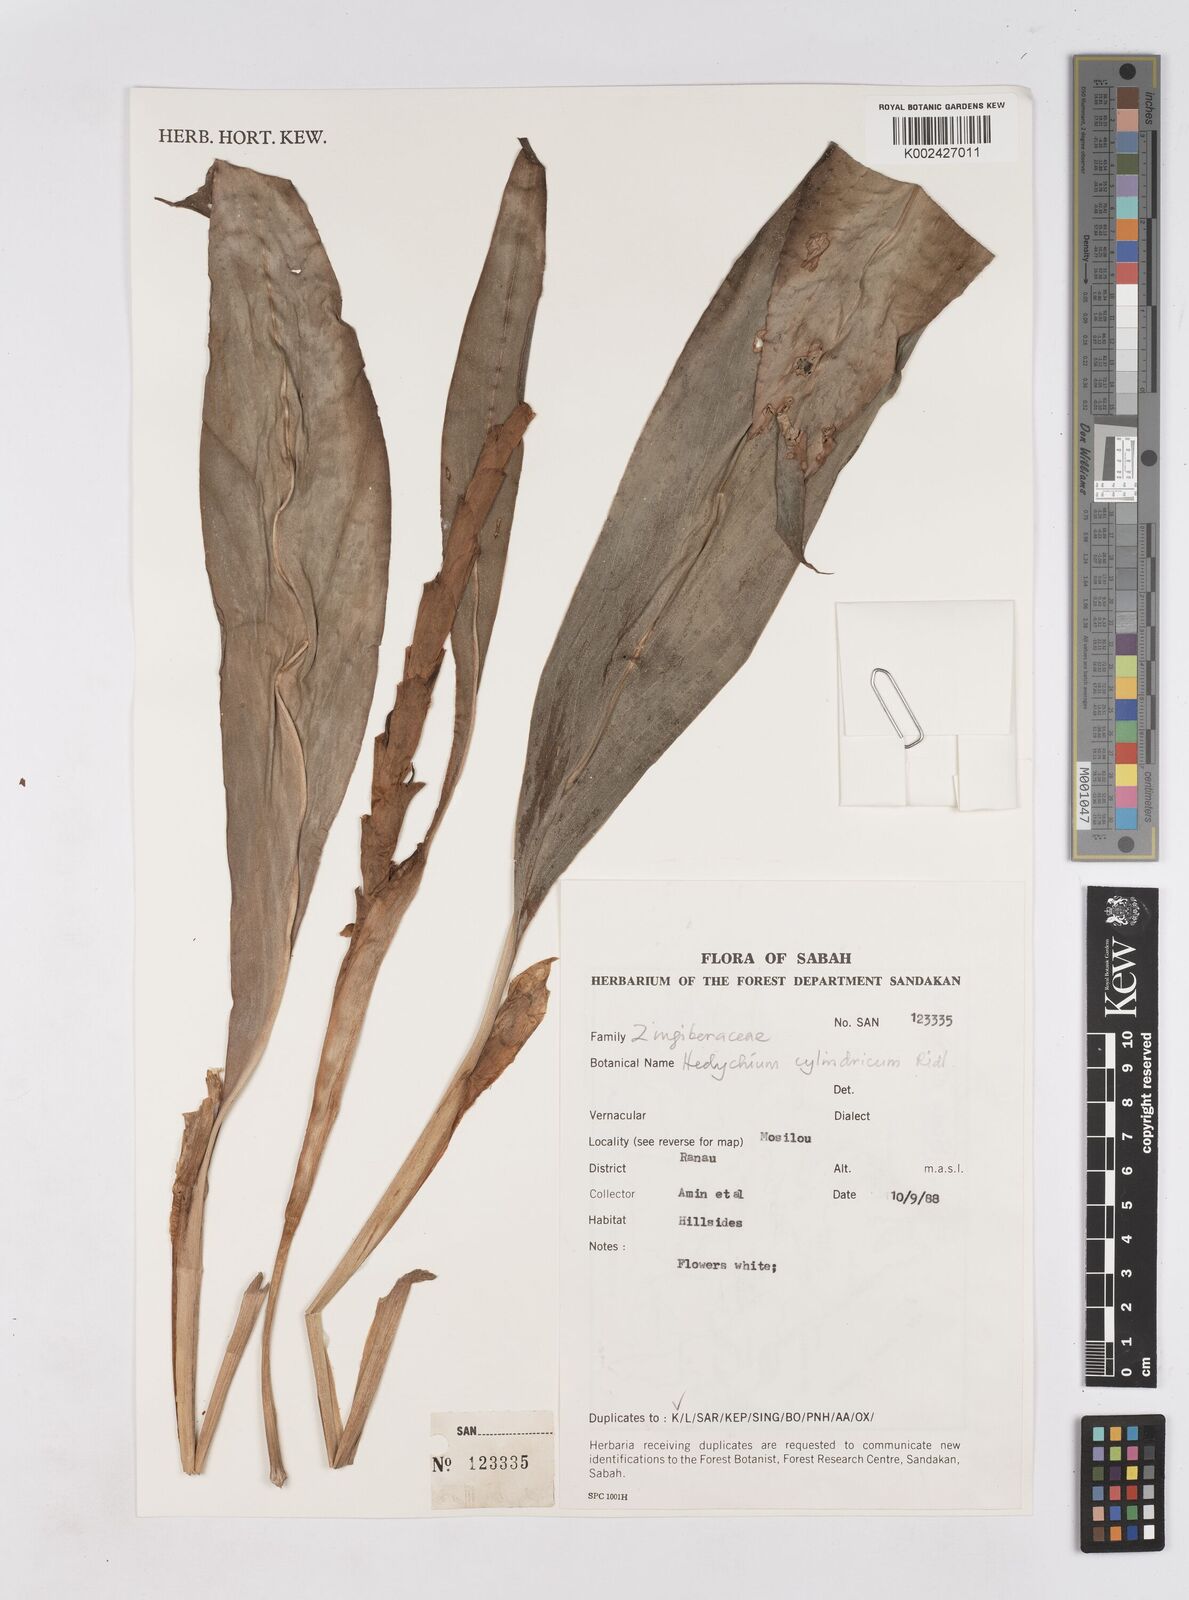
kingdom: Plantae
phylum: Tracheophyta
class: Liliopsida
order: Zingiberales
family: Zingiberaceae
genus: Hedychium
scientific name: Hedychium cylindricum
